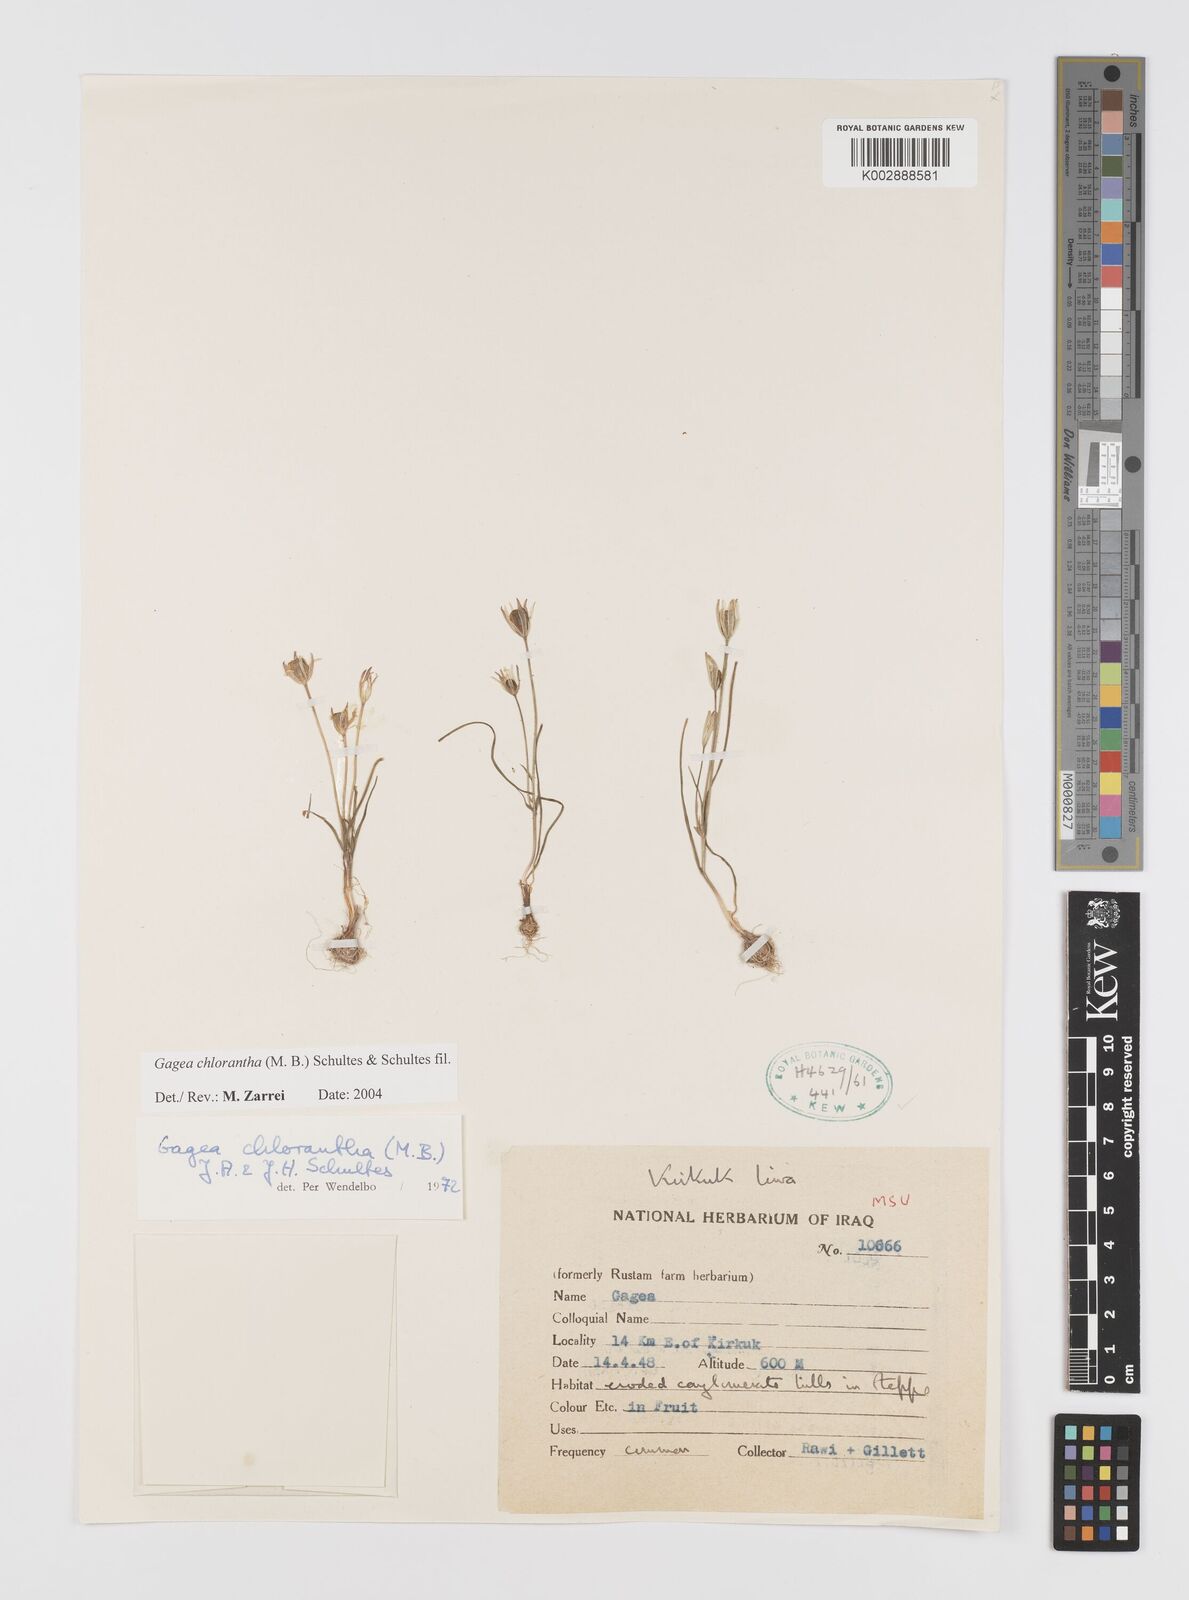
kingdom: Plantae
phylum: Tracheophyta
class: Liliopsida
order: Liliales
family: Liliaceae
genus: Gagea
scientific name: Gagea chlorantha
